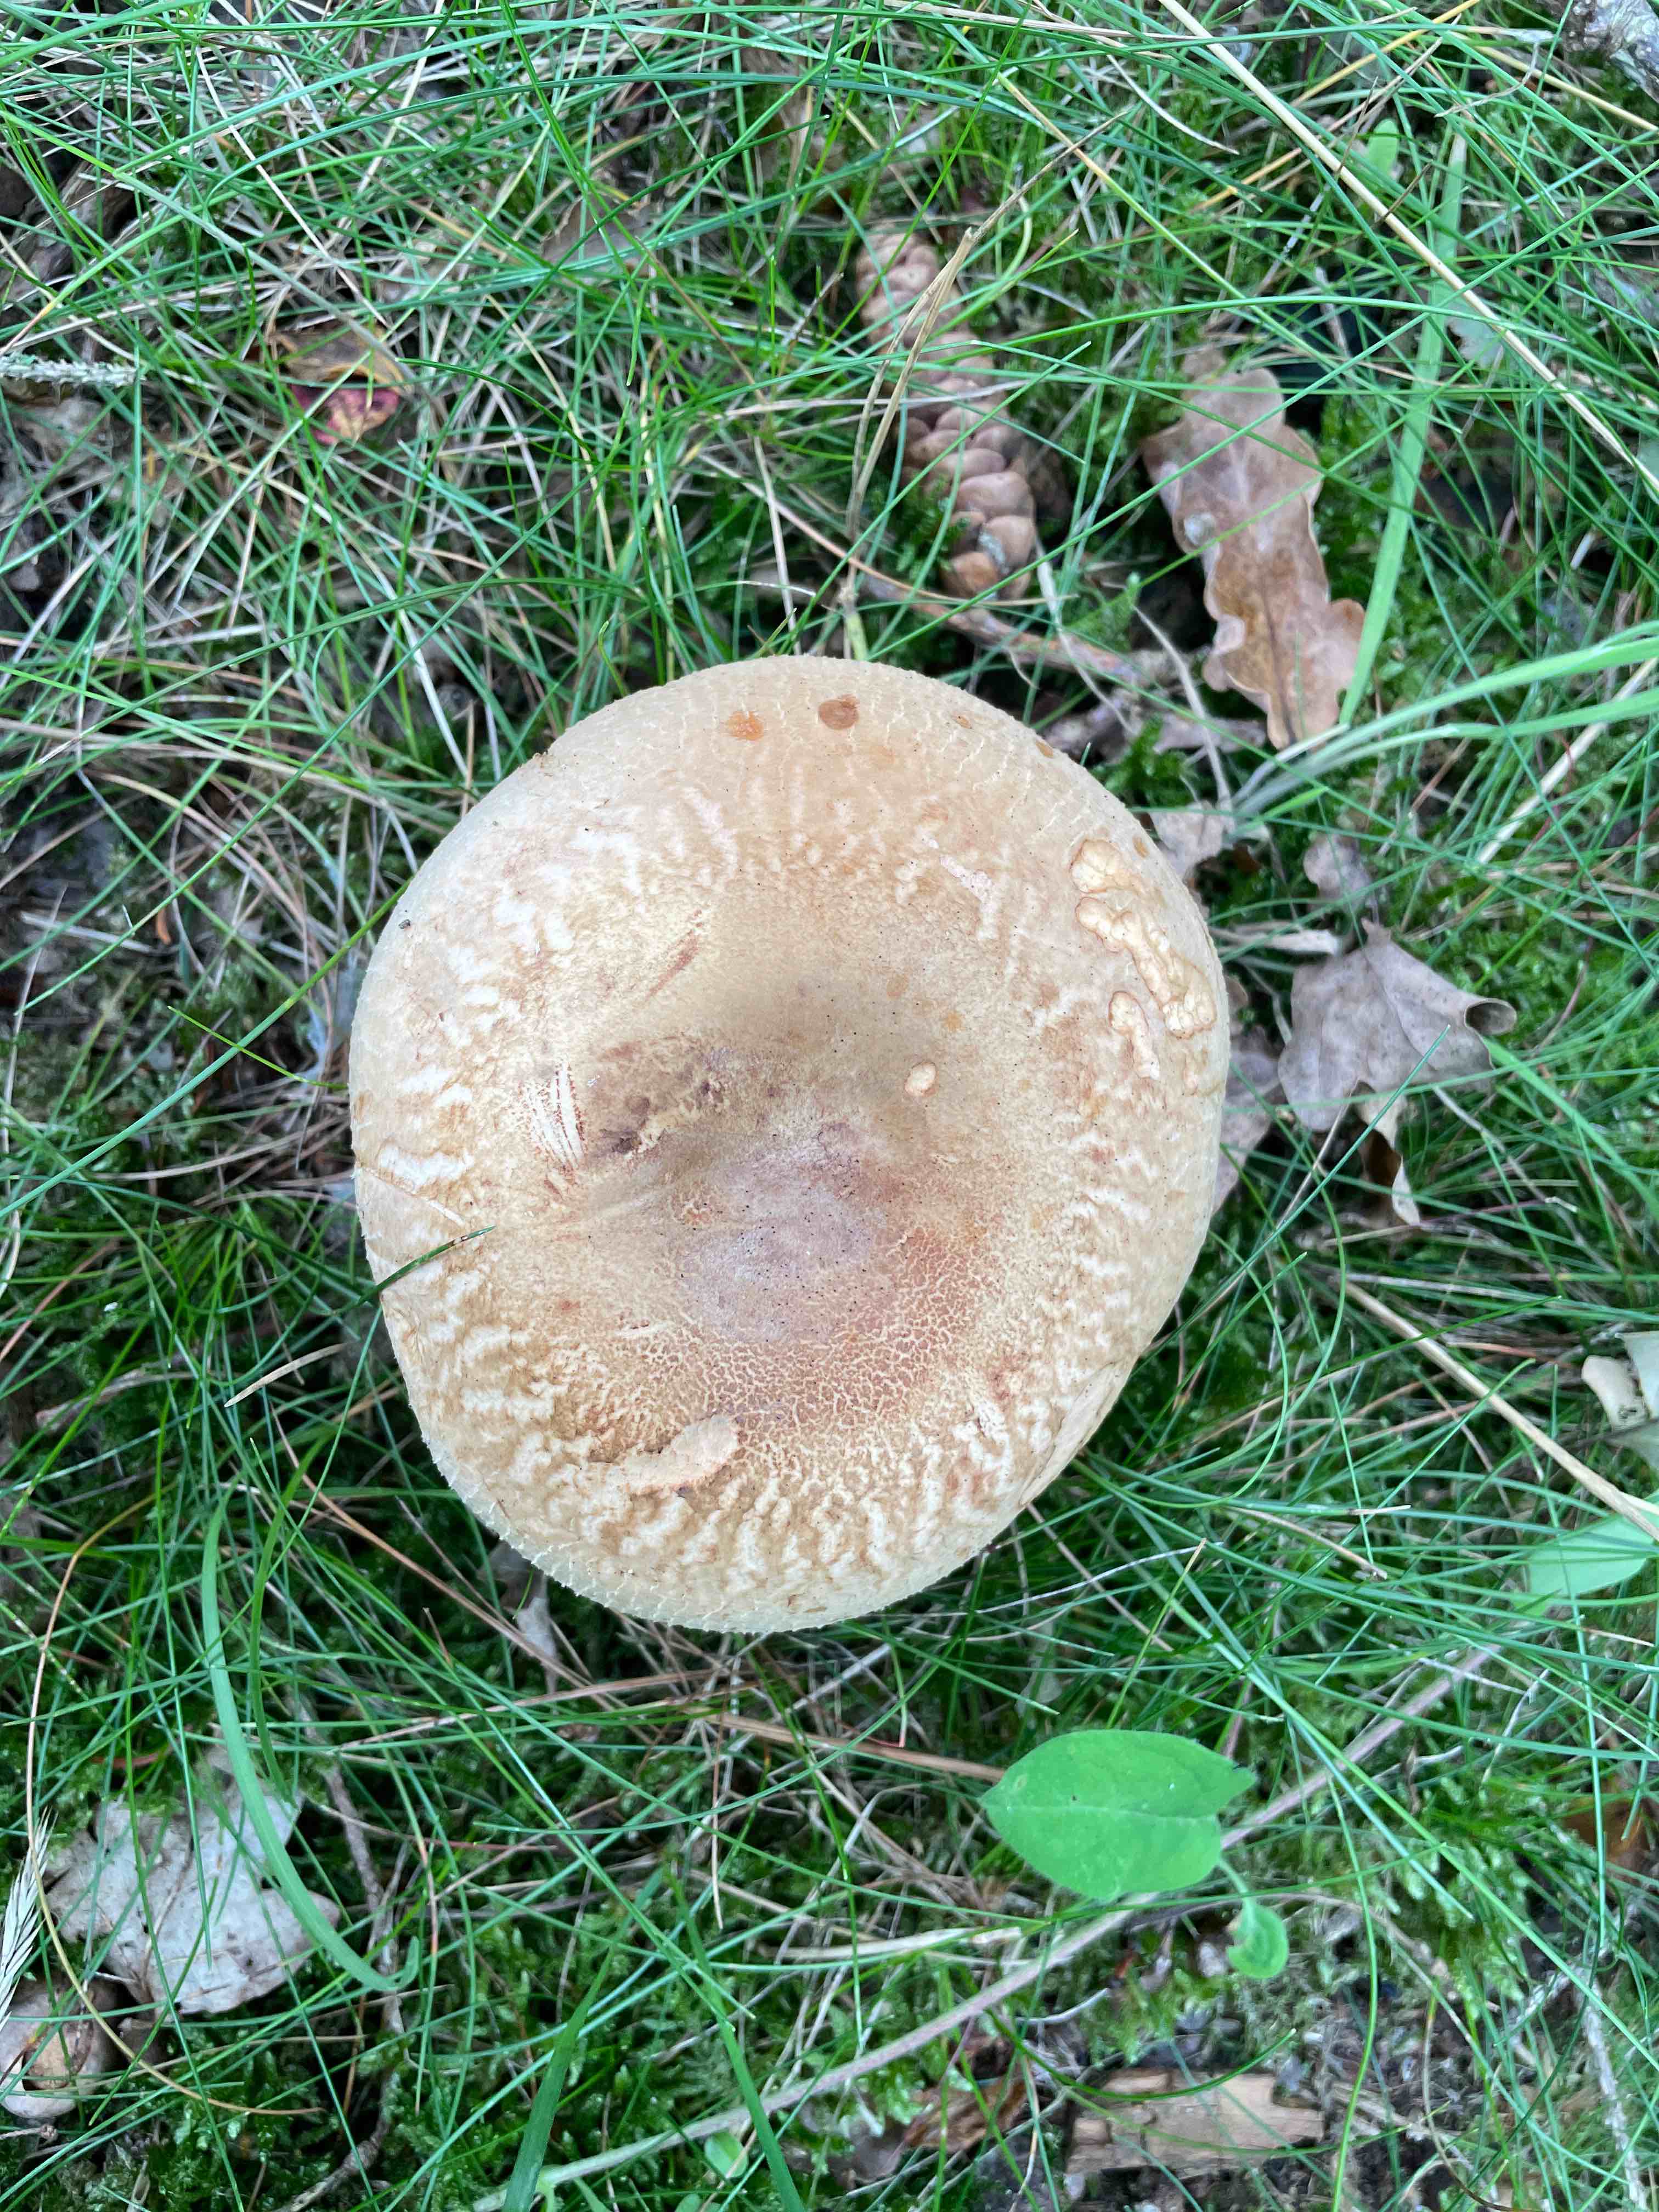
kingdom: Fungi
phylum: Basidiomycota
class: Agaricomycetes
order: Boletales
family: Paxillaceae
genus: Paxillus
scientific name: Paxillus
